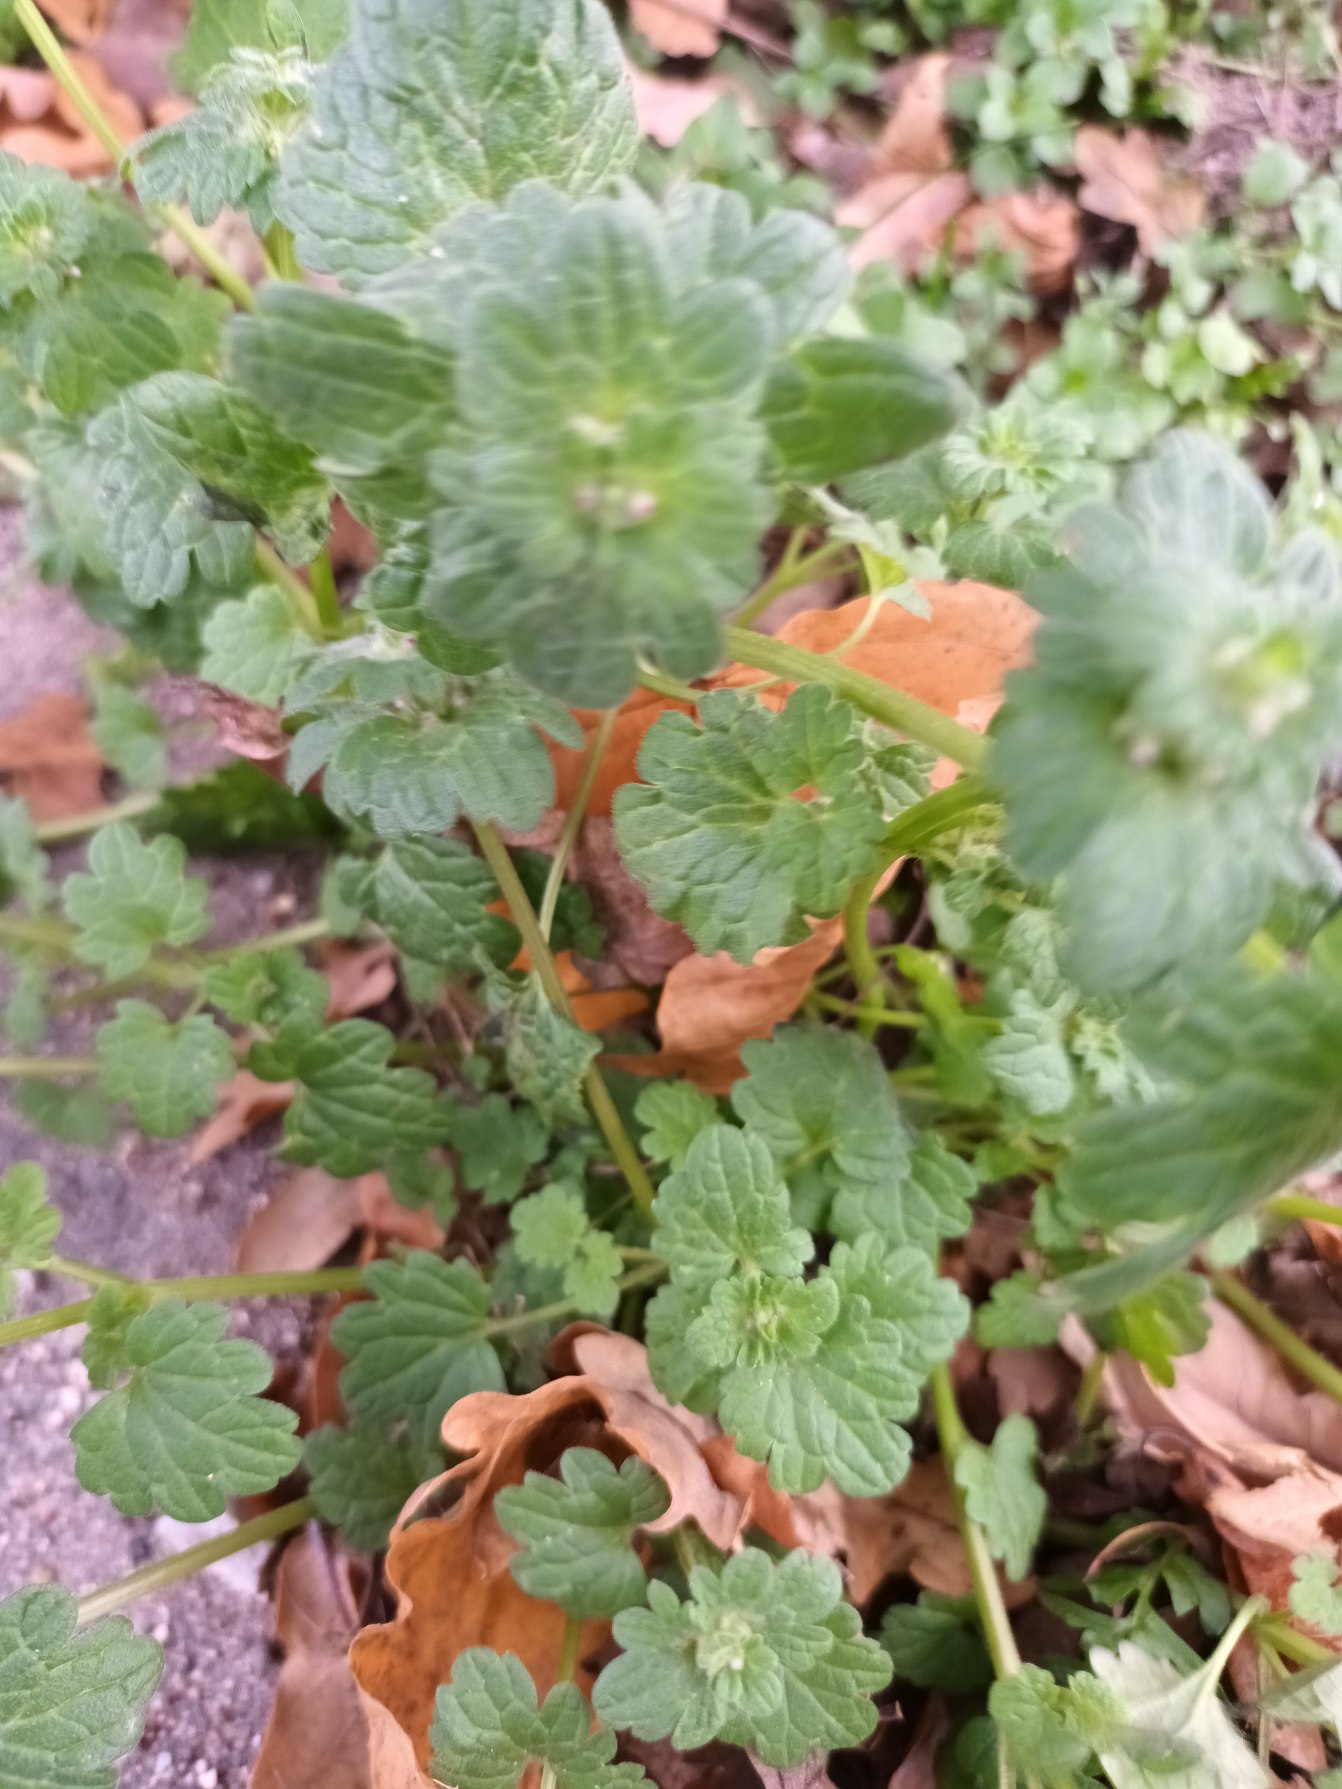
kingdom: Plantae
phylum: Tracheophyta
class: Magnoliopsida
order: Lamiales
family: Lamiaceae
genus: Lamium
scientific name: Lamium amplexicaule
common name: Liden tvetand
